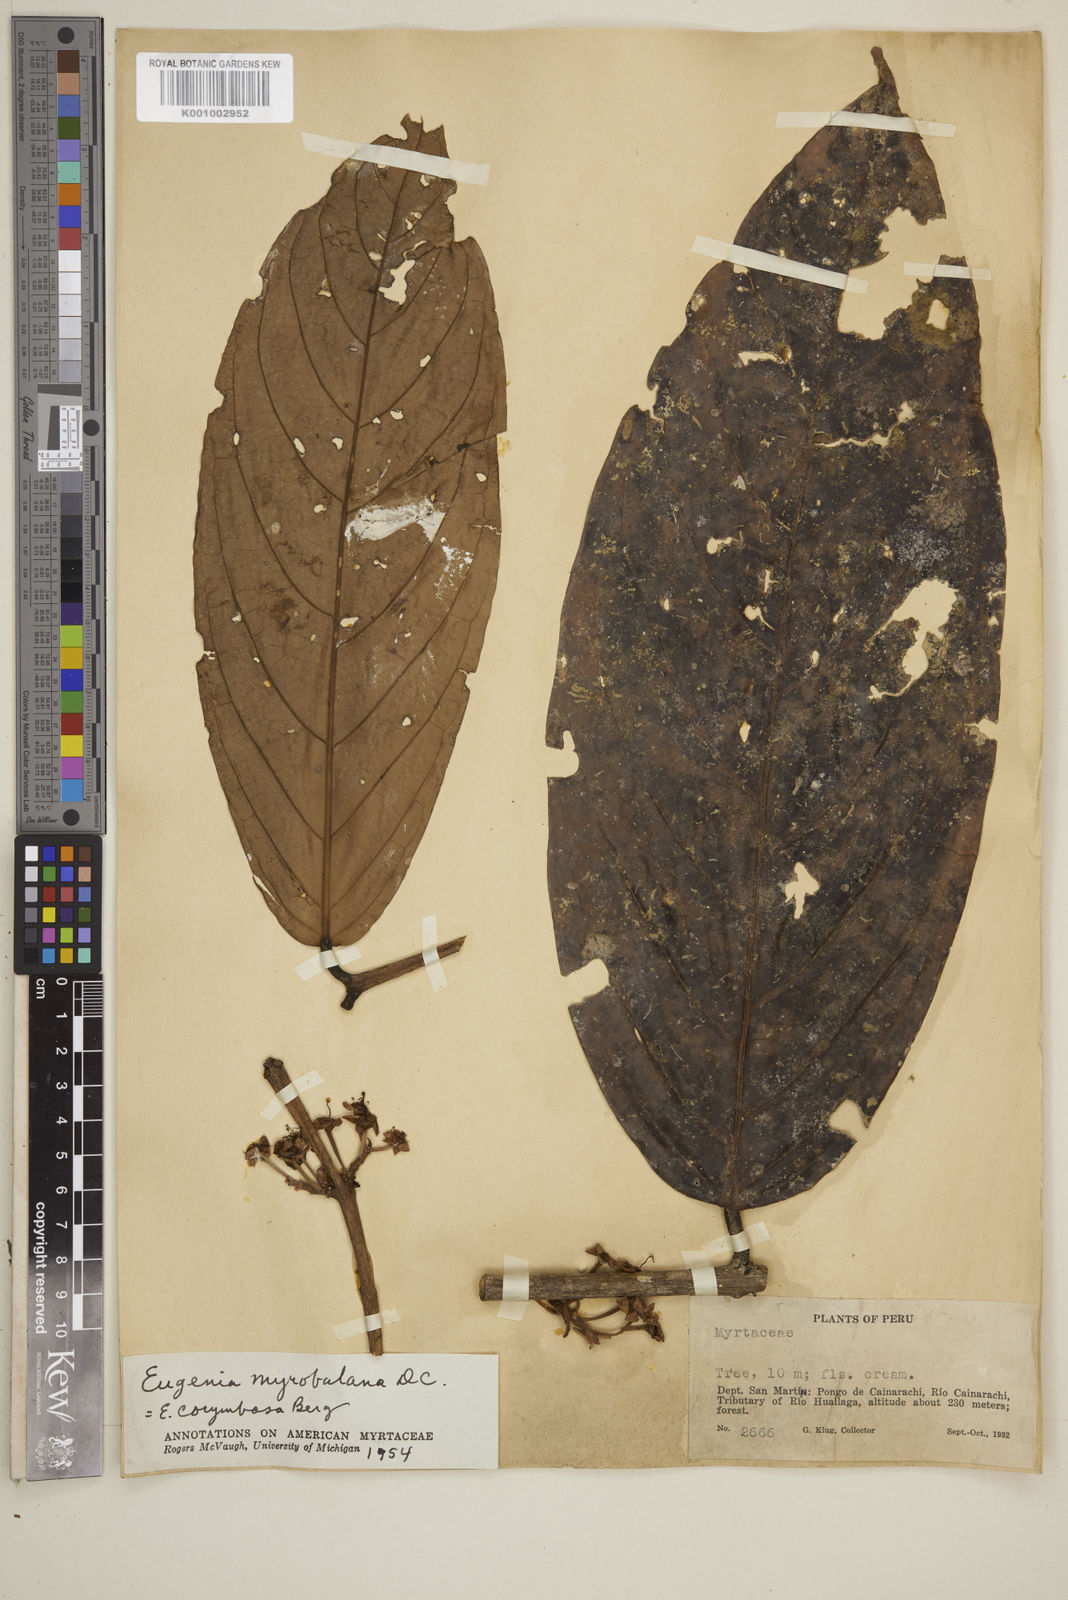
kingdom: Plantae
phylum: Tracheophyta
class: Magnoliopsida
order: Myrtales
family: Myrtaceae
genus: Eugenia
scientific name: Eugenia myrobalana
